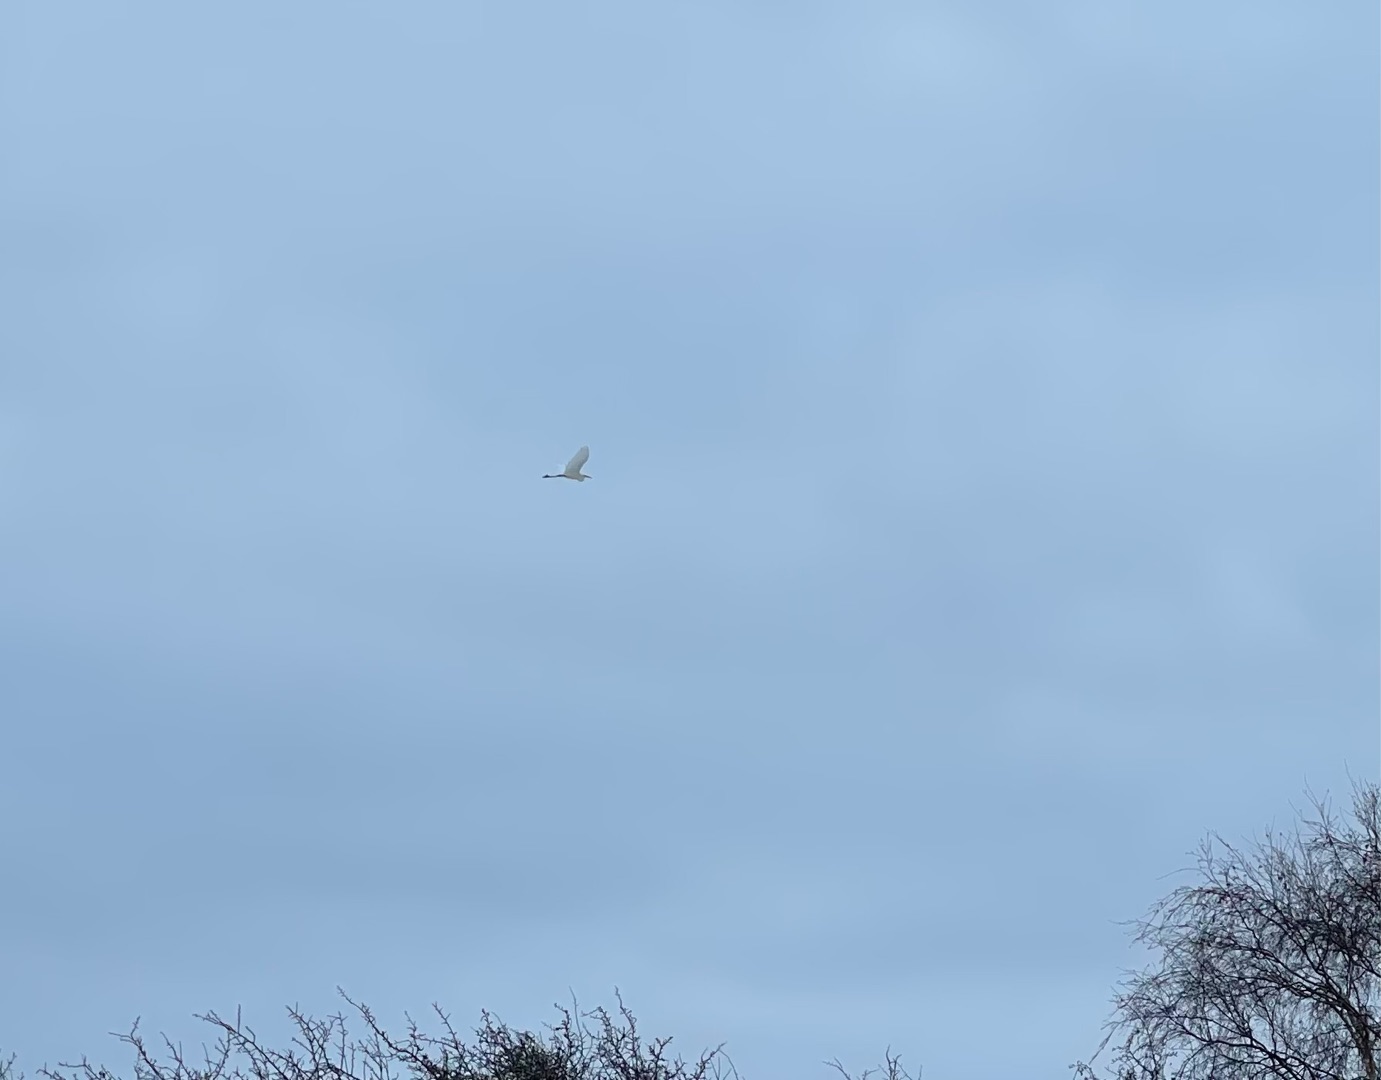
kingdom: Animalia
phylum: Chordata
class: Aves
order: Pelecaniformes
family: Ardeidae
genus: Ardea
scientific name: Ardea alba
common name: Sølvhejre
